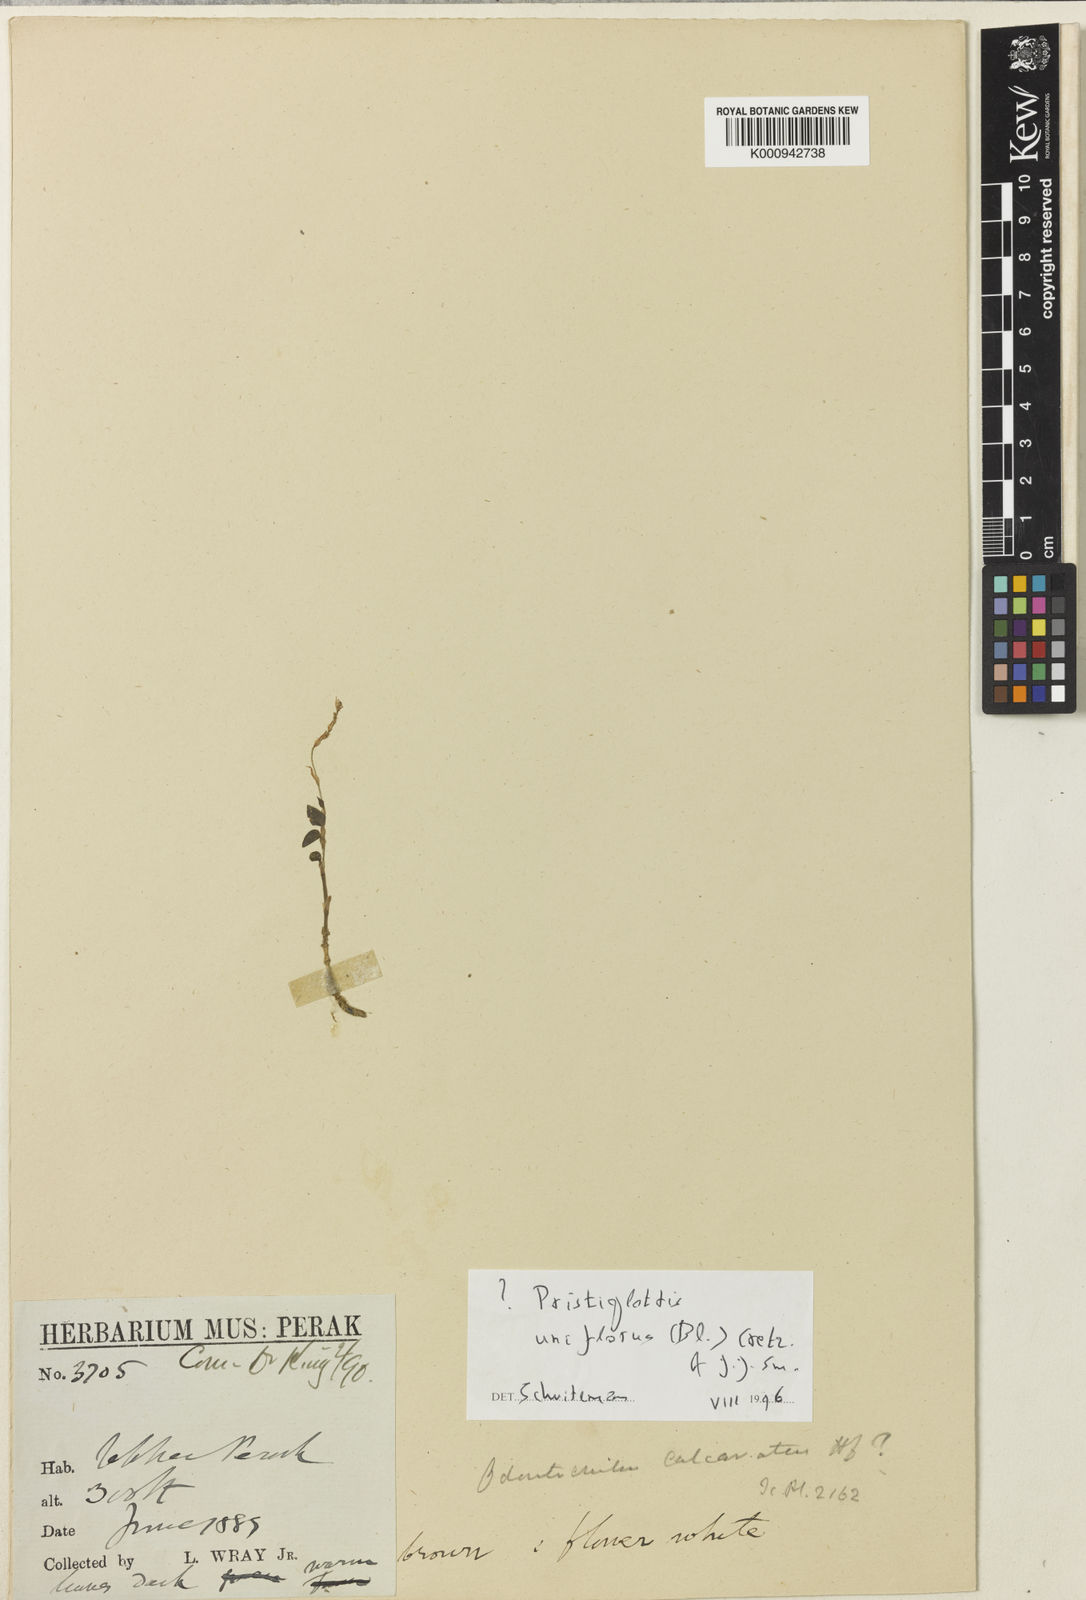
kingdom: Plantae
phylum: Tracheophyta
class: Liliopsida
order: Asparagales
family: Orchidaceae
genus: Odontochilus
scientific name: Odontochilus uniflorus
